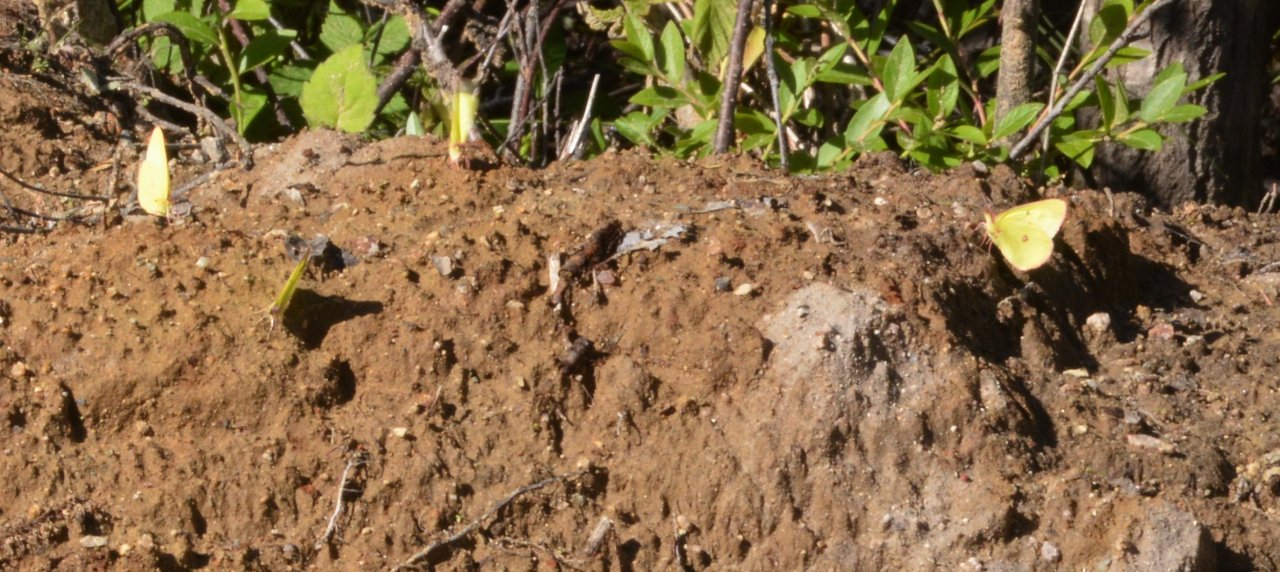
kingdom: Animalia
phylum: Arthropoda
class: Insecta
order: Lepidoptera
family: Pieridae
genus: Colias
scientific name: Colias interior
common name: Pink-edged Sulphur
